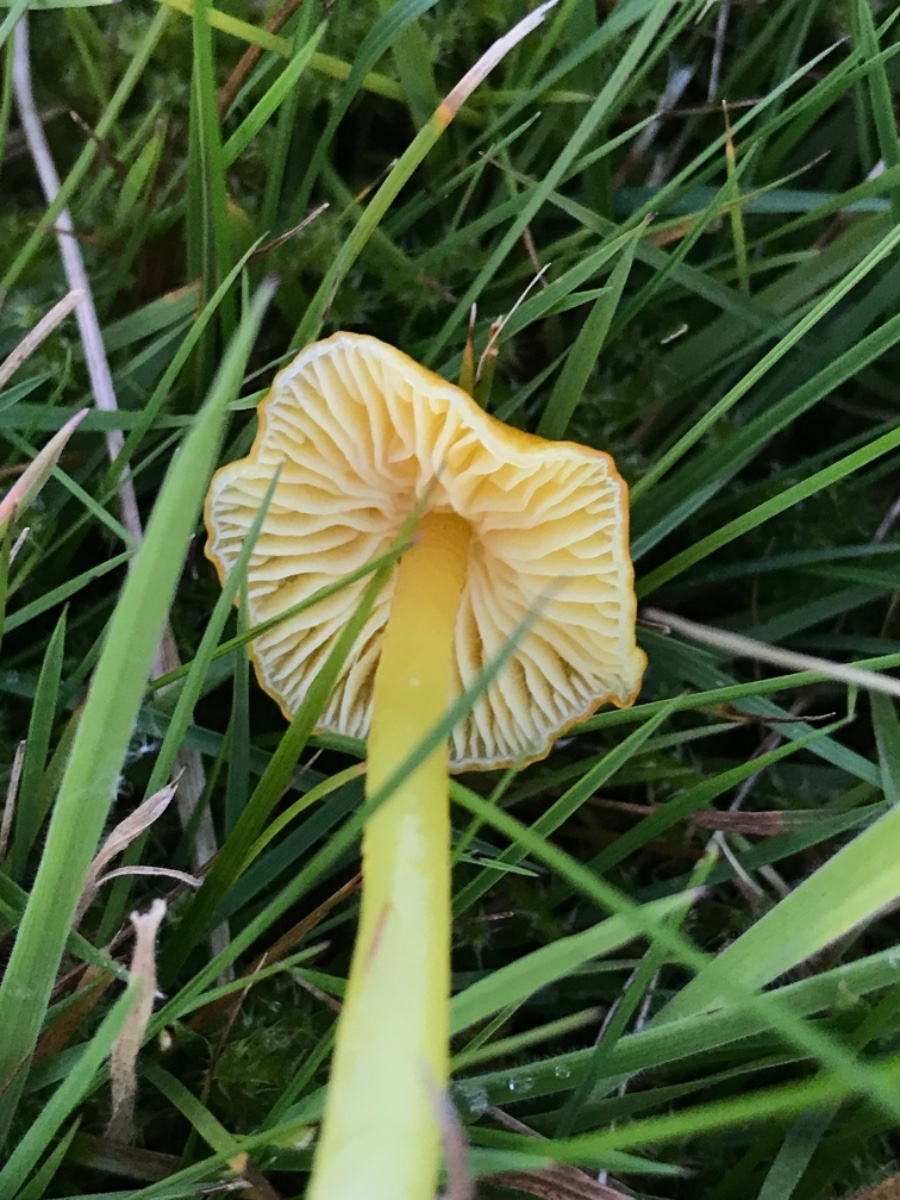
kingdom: Fungi
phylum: Basidiomycota
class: Agaricomycetes
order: Agaricales
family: Hygrophoraceae
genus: Hygrocybe
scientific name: Hygrocybe ceracea
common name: voksgul vokshat
